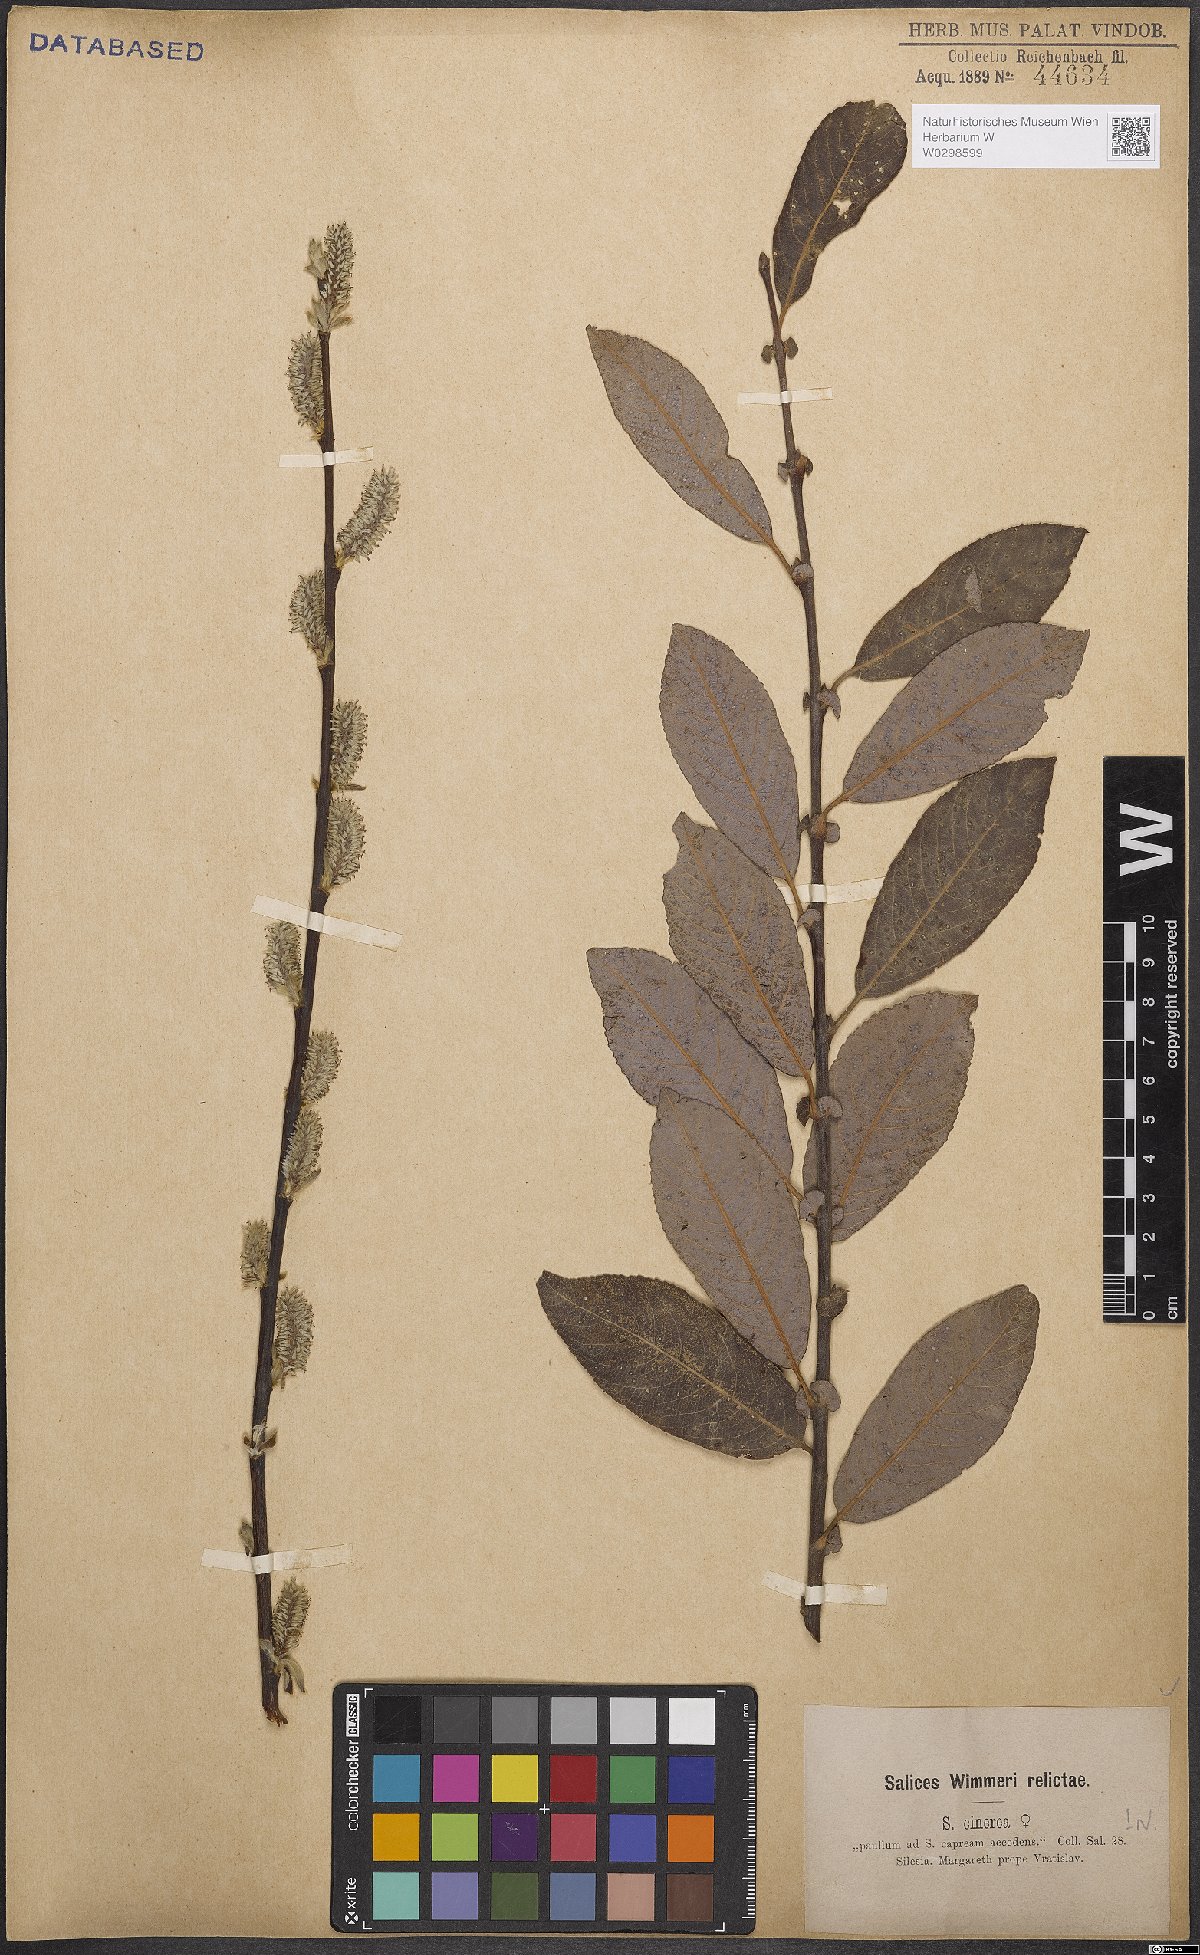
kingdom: Plantae
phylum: Tracheophyta
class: Magnoliopsida
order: Malpighiales
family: Salicaceae
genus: Salix
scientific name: Salix cinerea
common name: Common sallow
